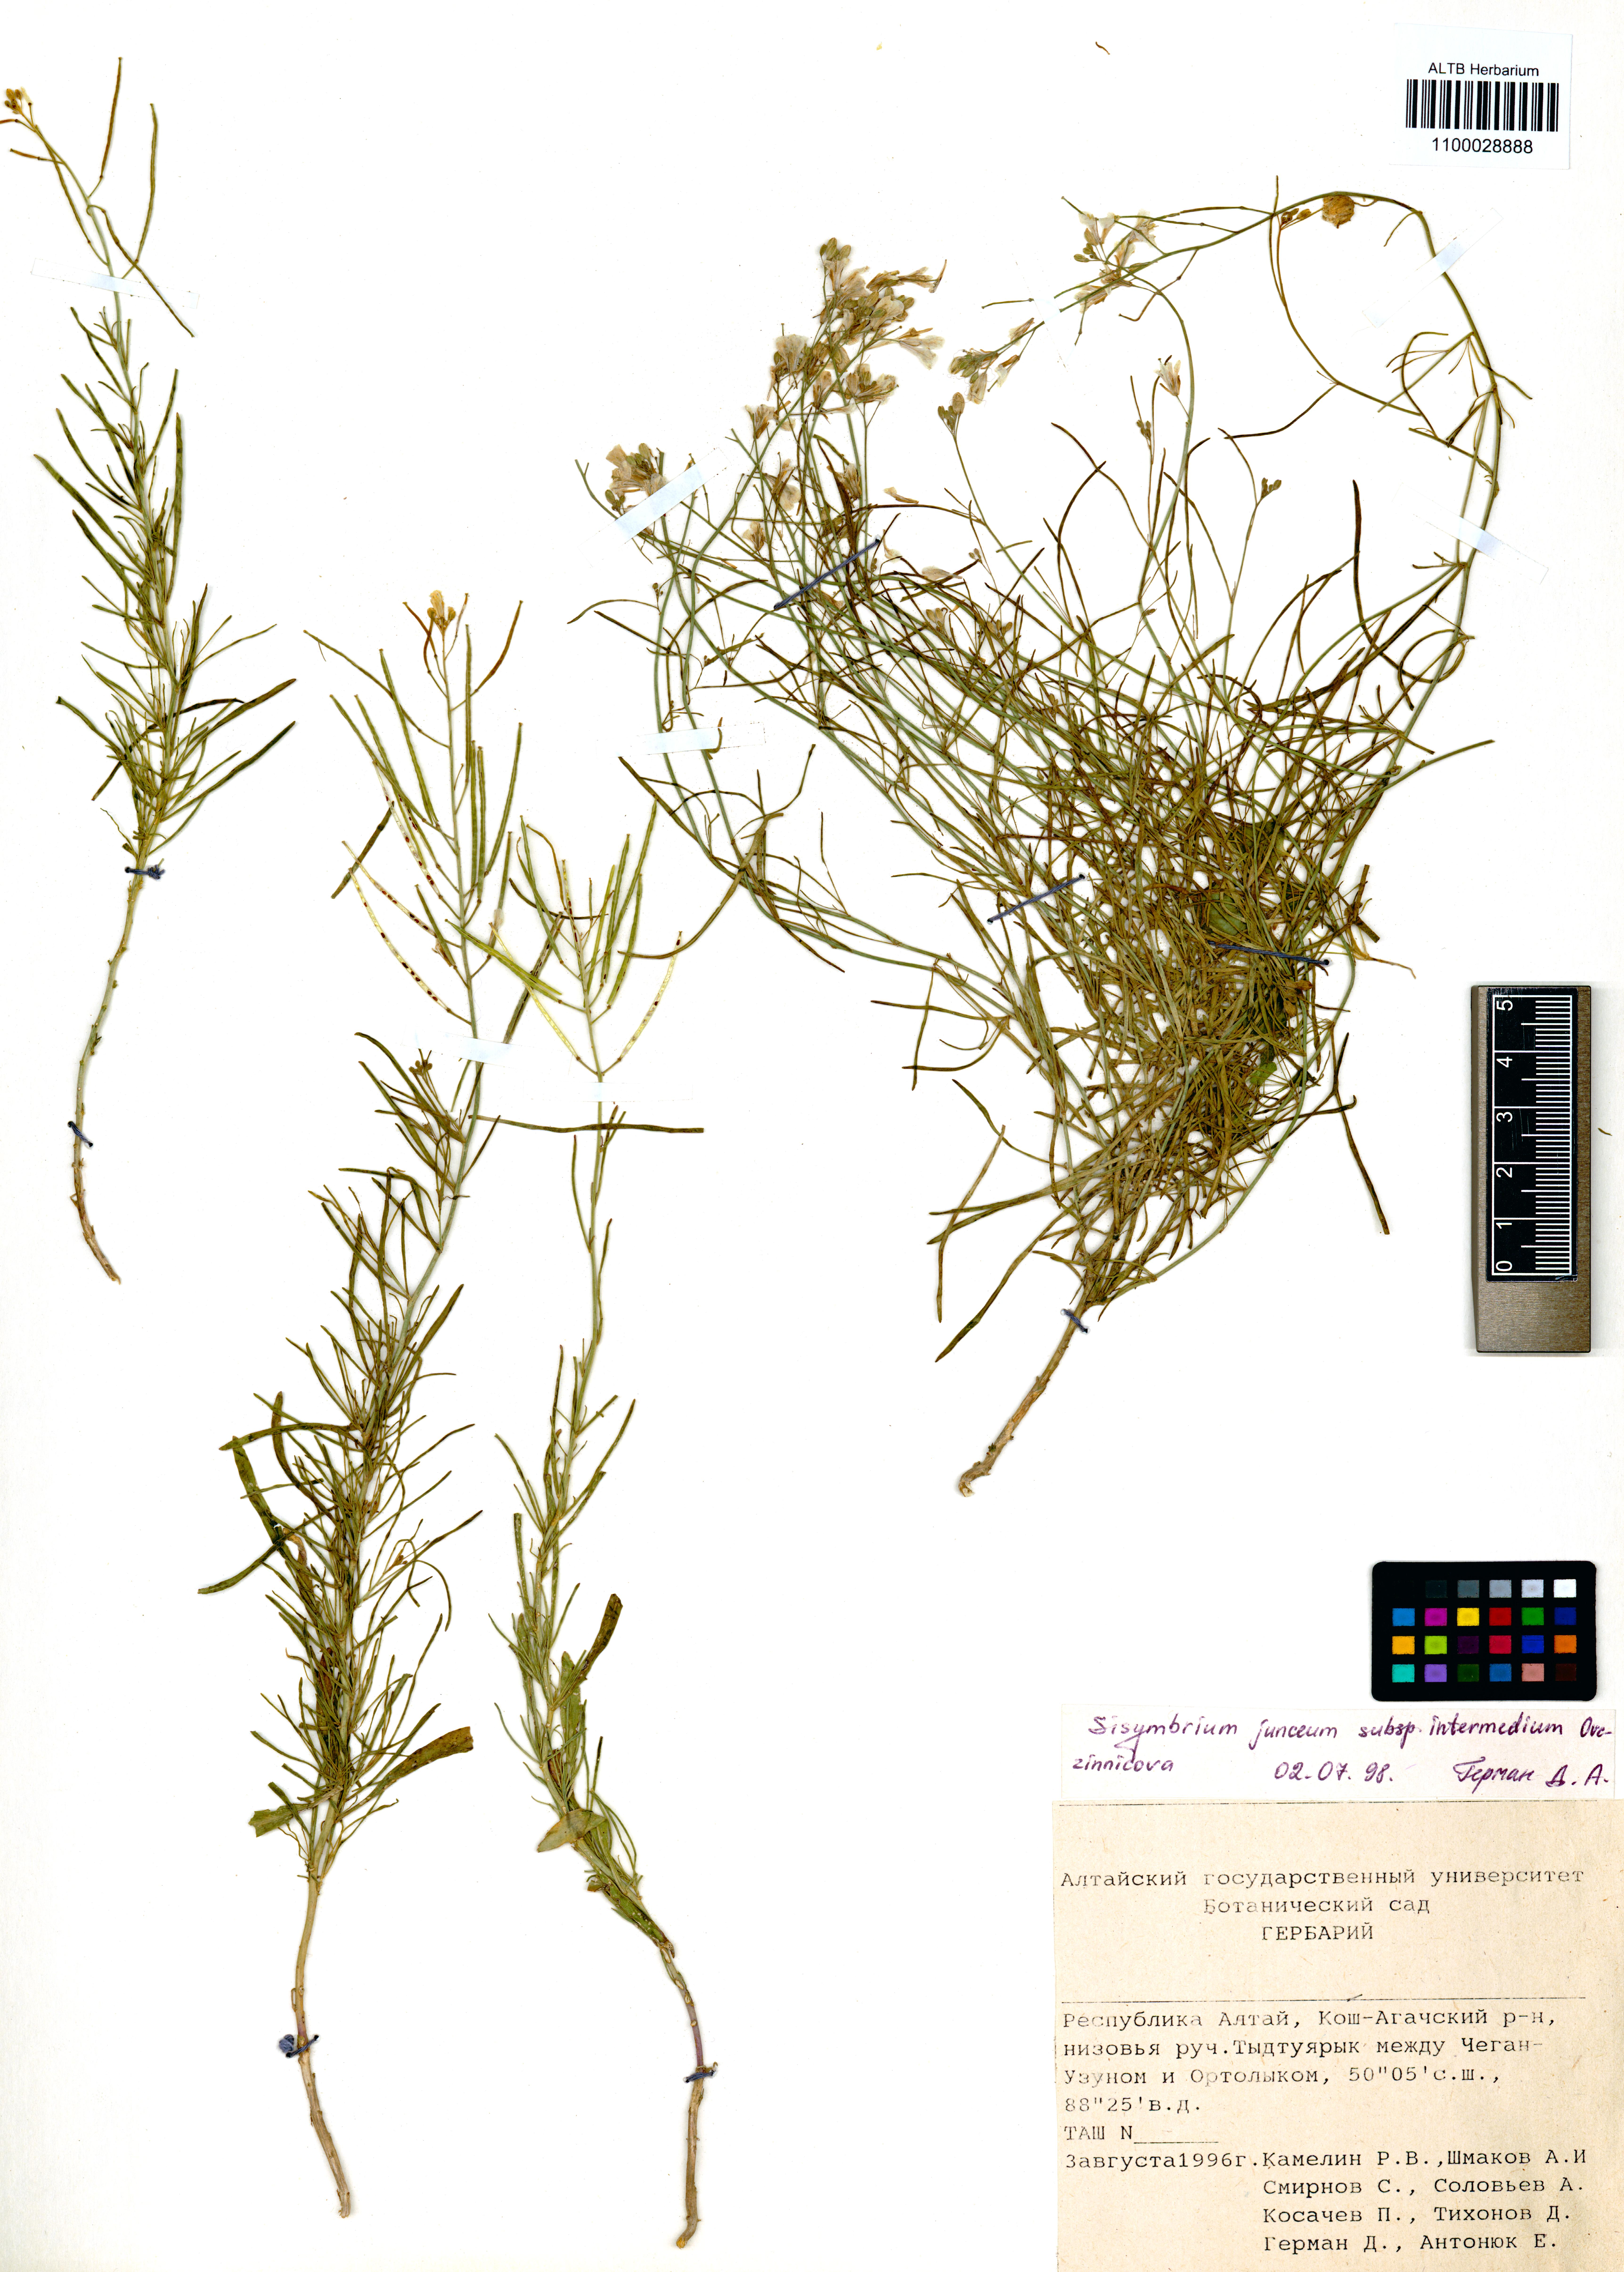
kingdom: Plantae
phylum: Tracheophyta
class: Magnoliopsida
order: Brassicales
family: Brassicaceae
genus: Sisymbrium
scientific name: Sisymbrium polymorphum
